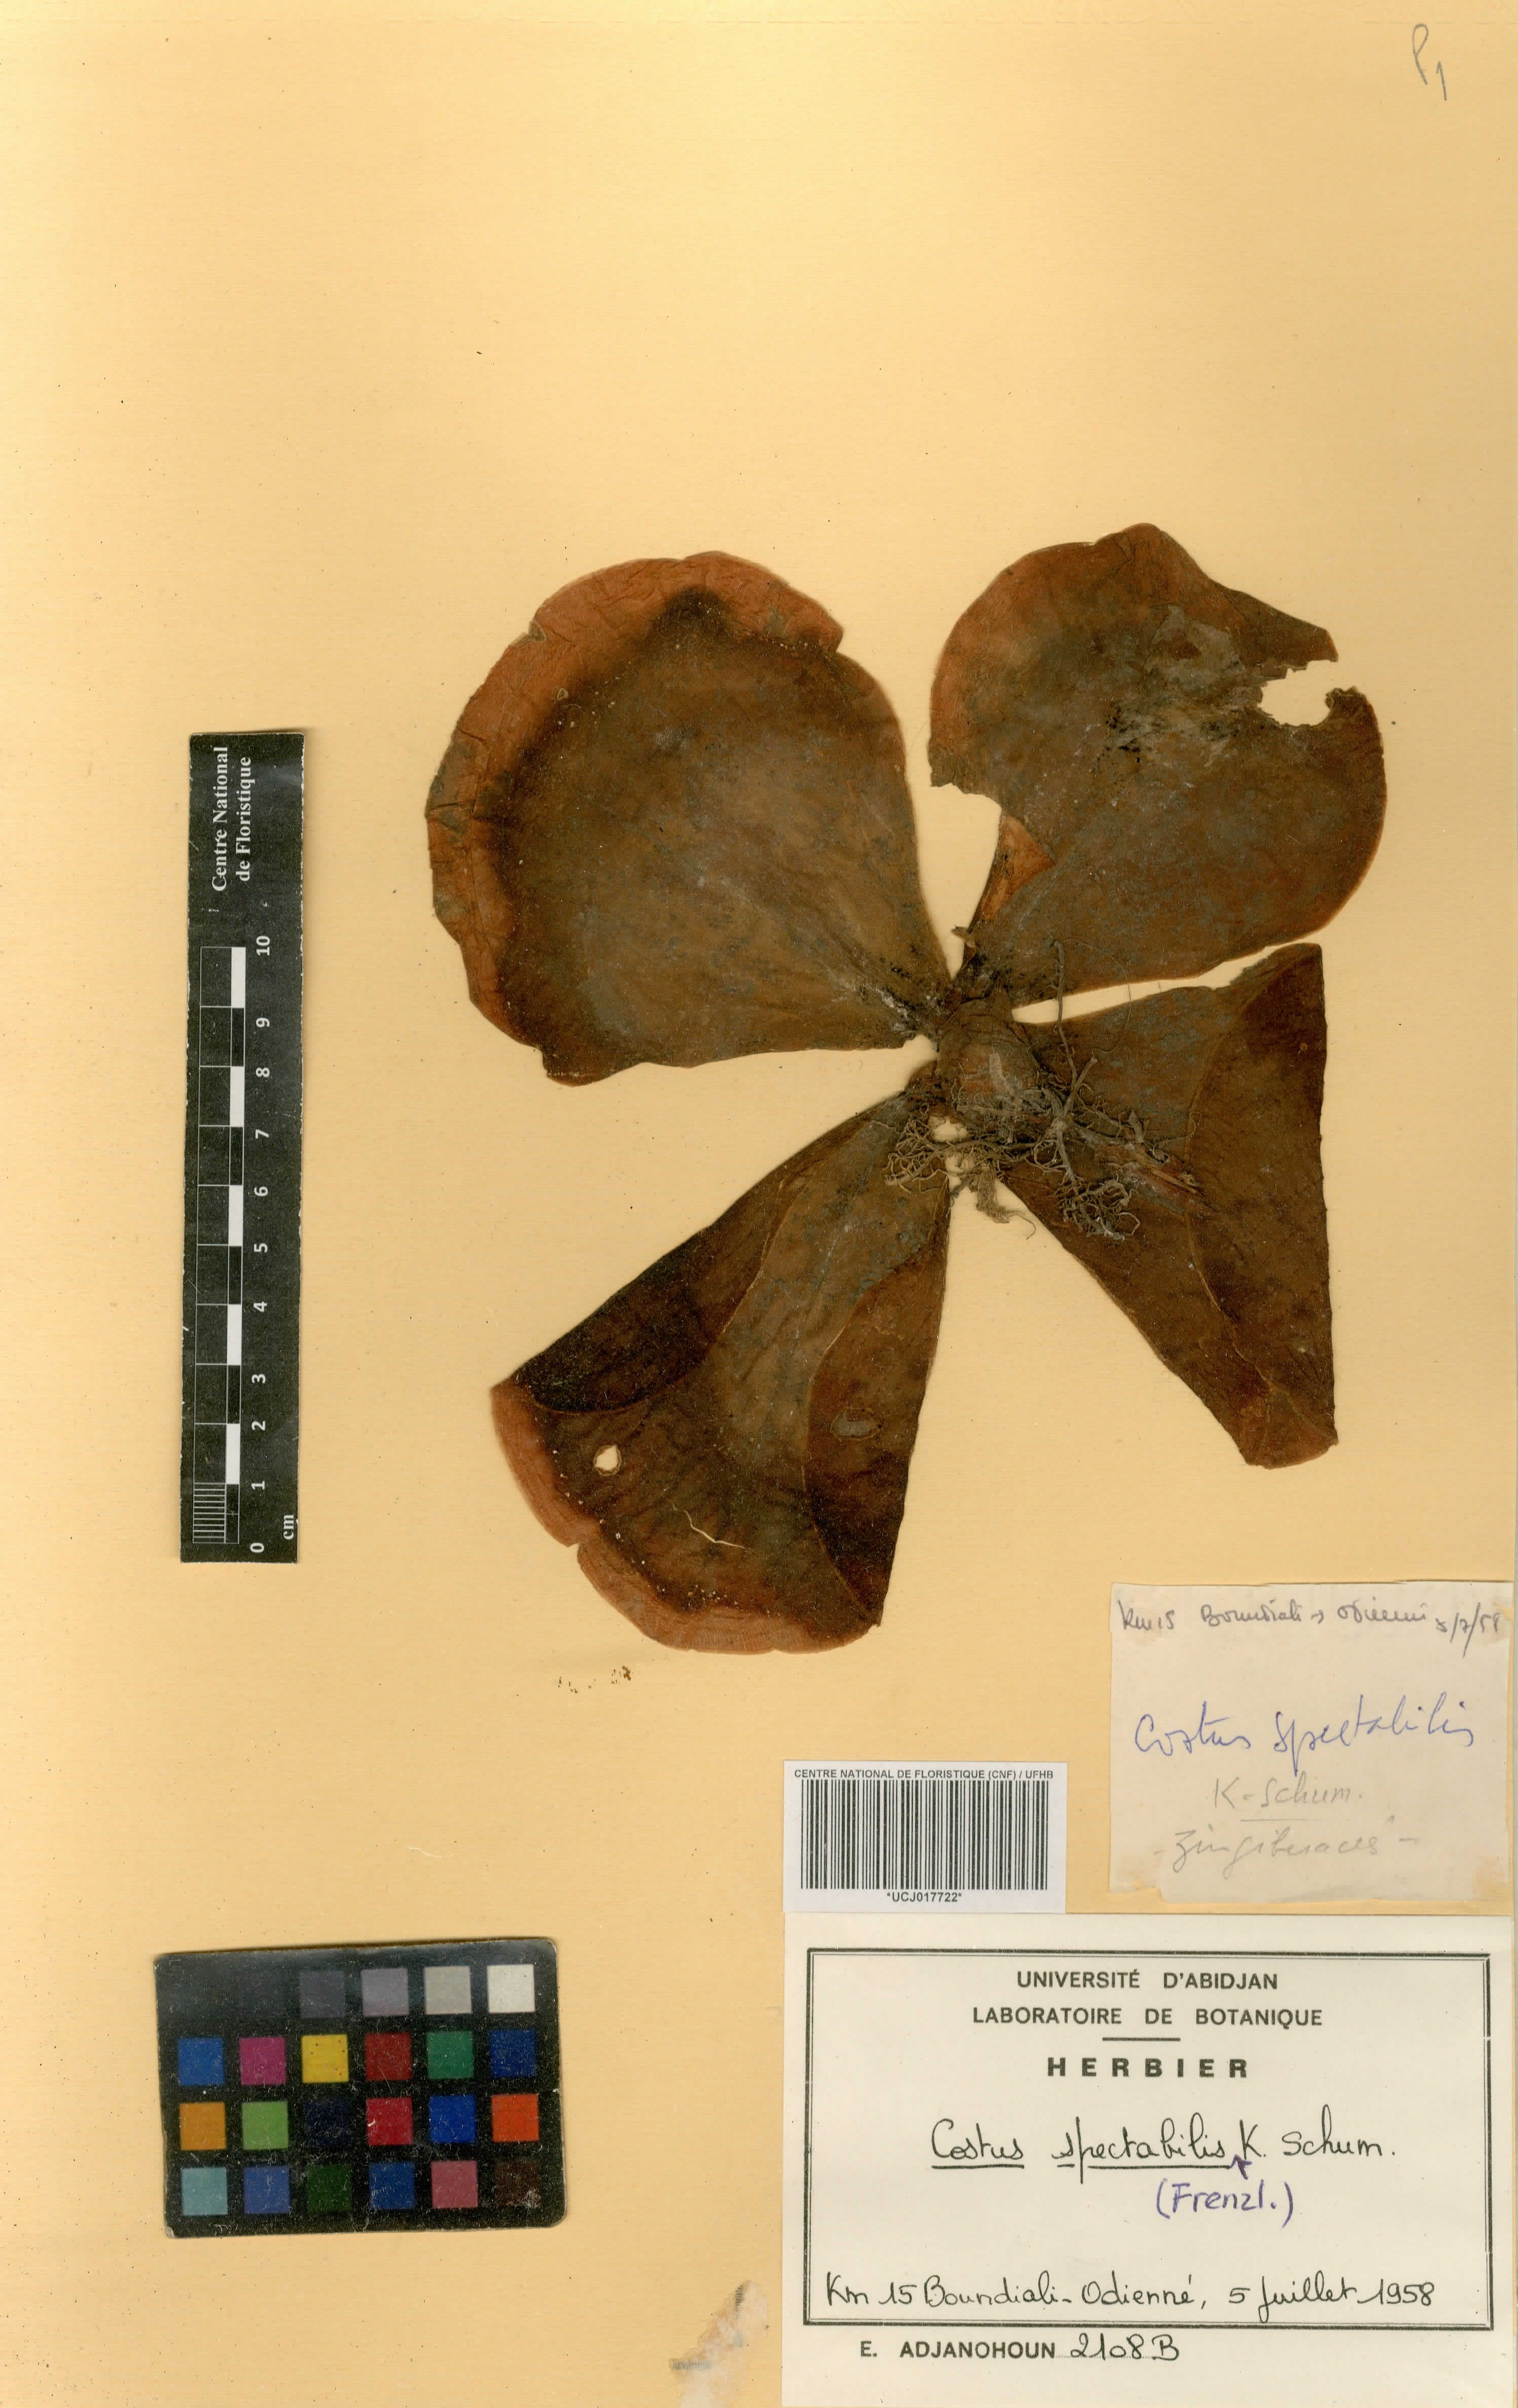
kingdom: Plantae
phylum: Tracheophyta
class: Liliopsida
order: Zingiberales
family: Costaceae
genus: Costus
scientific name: Costus spectabilis
